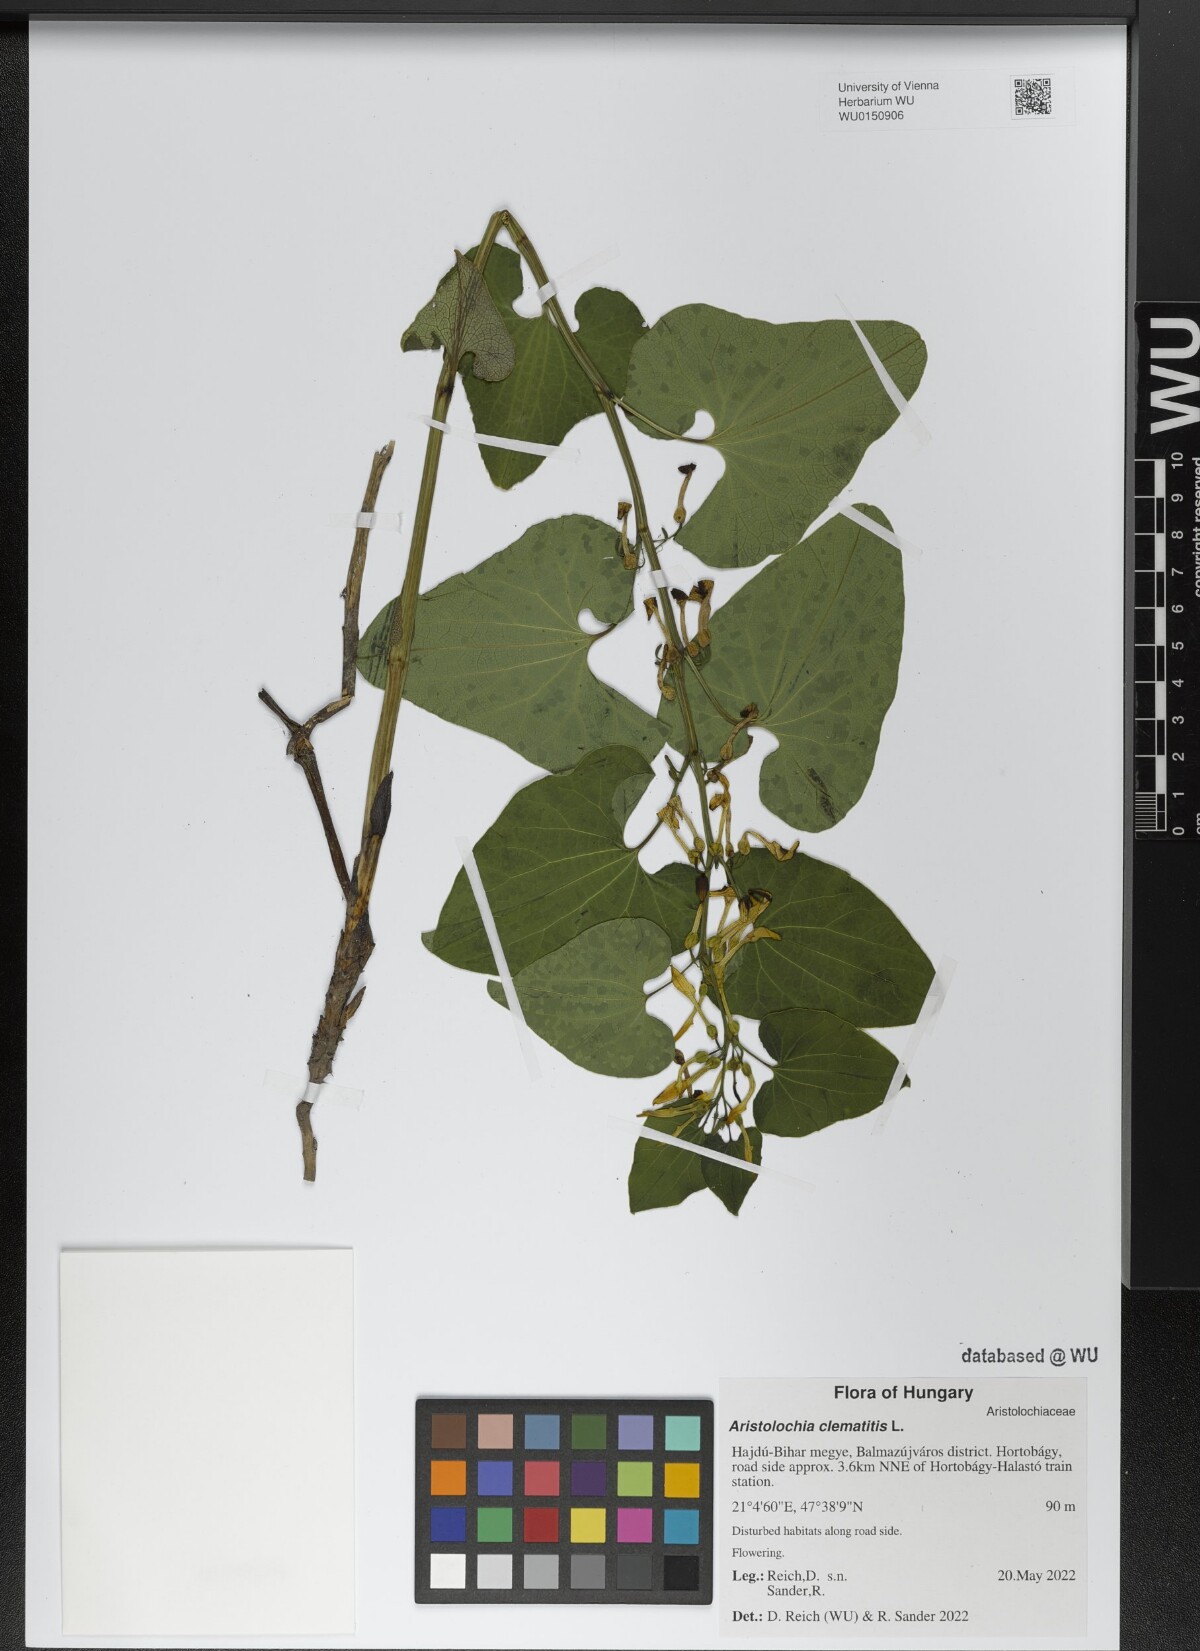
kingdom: Plantae
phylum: Tracheophyta
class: Magnoliopsida
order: Piperales
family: Aristolochiaceae
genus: Aristolochia
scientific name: Aristolochia clematitis
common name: Birthwort
